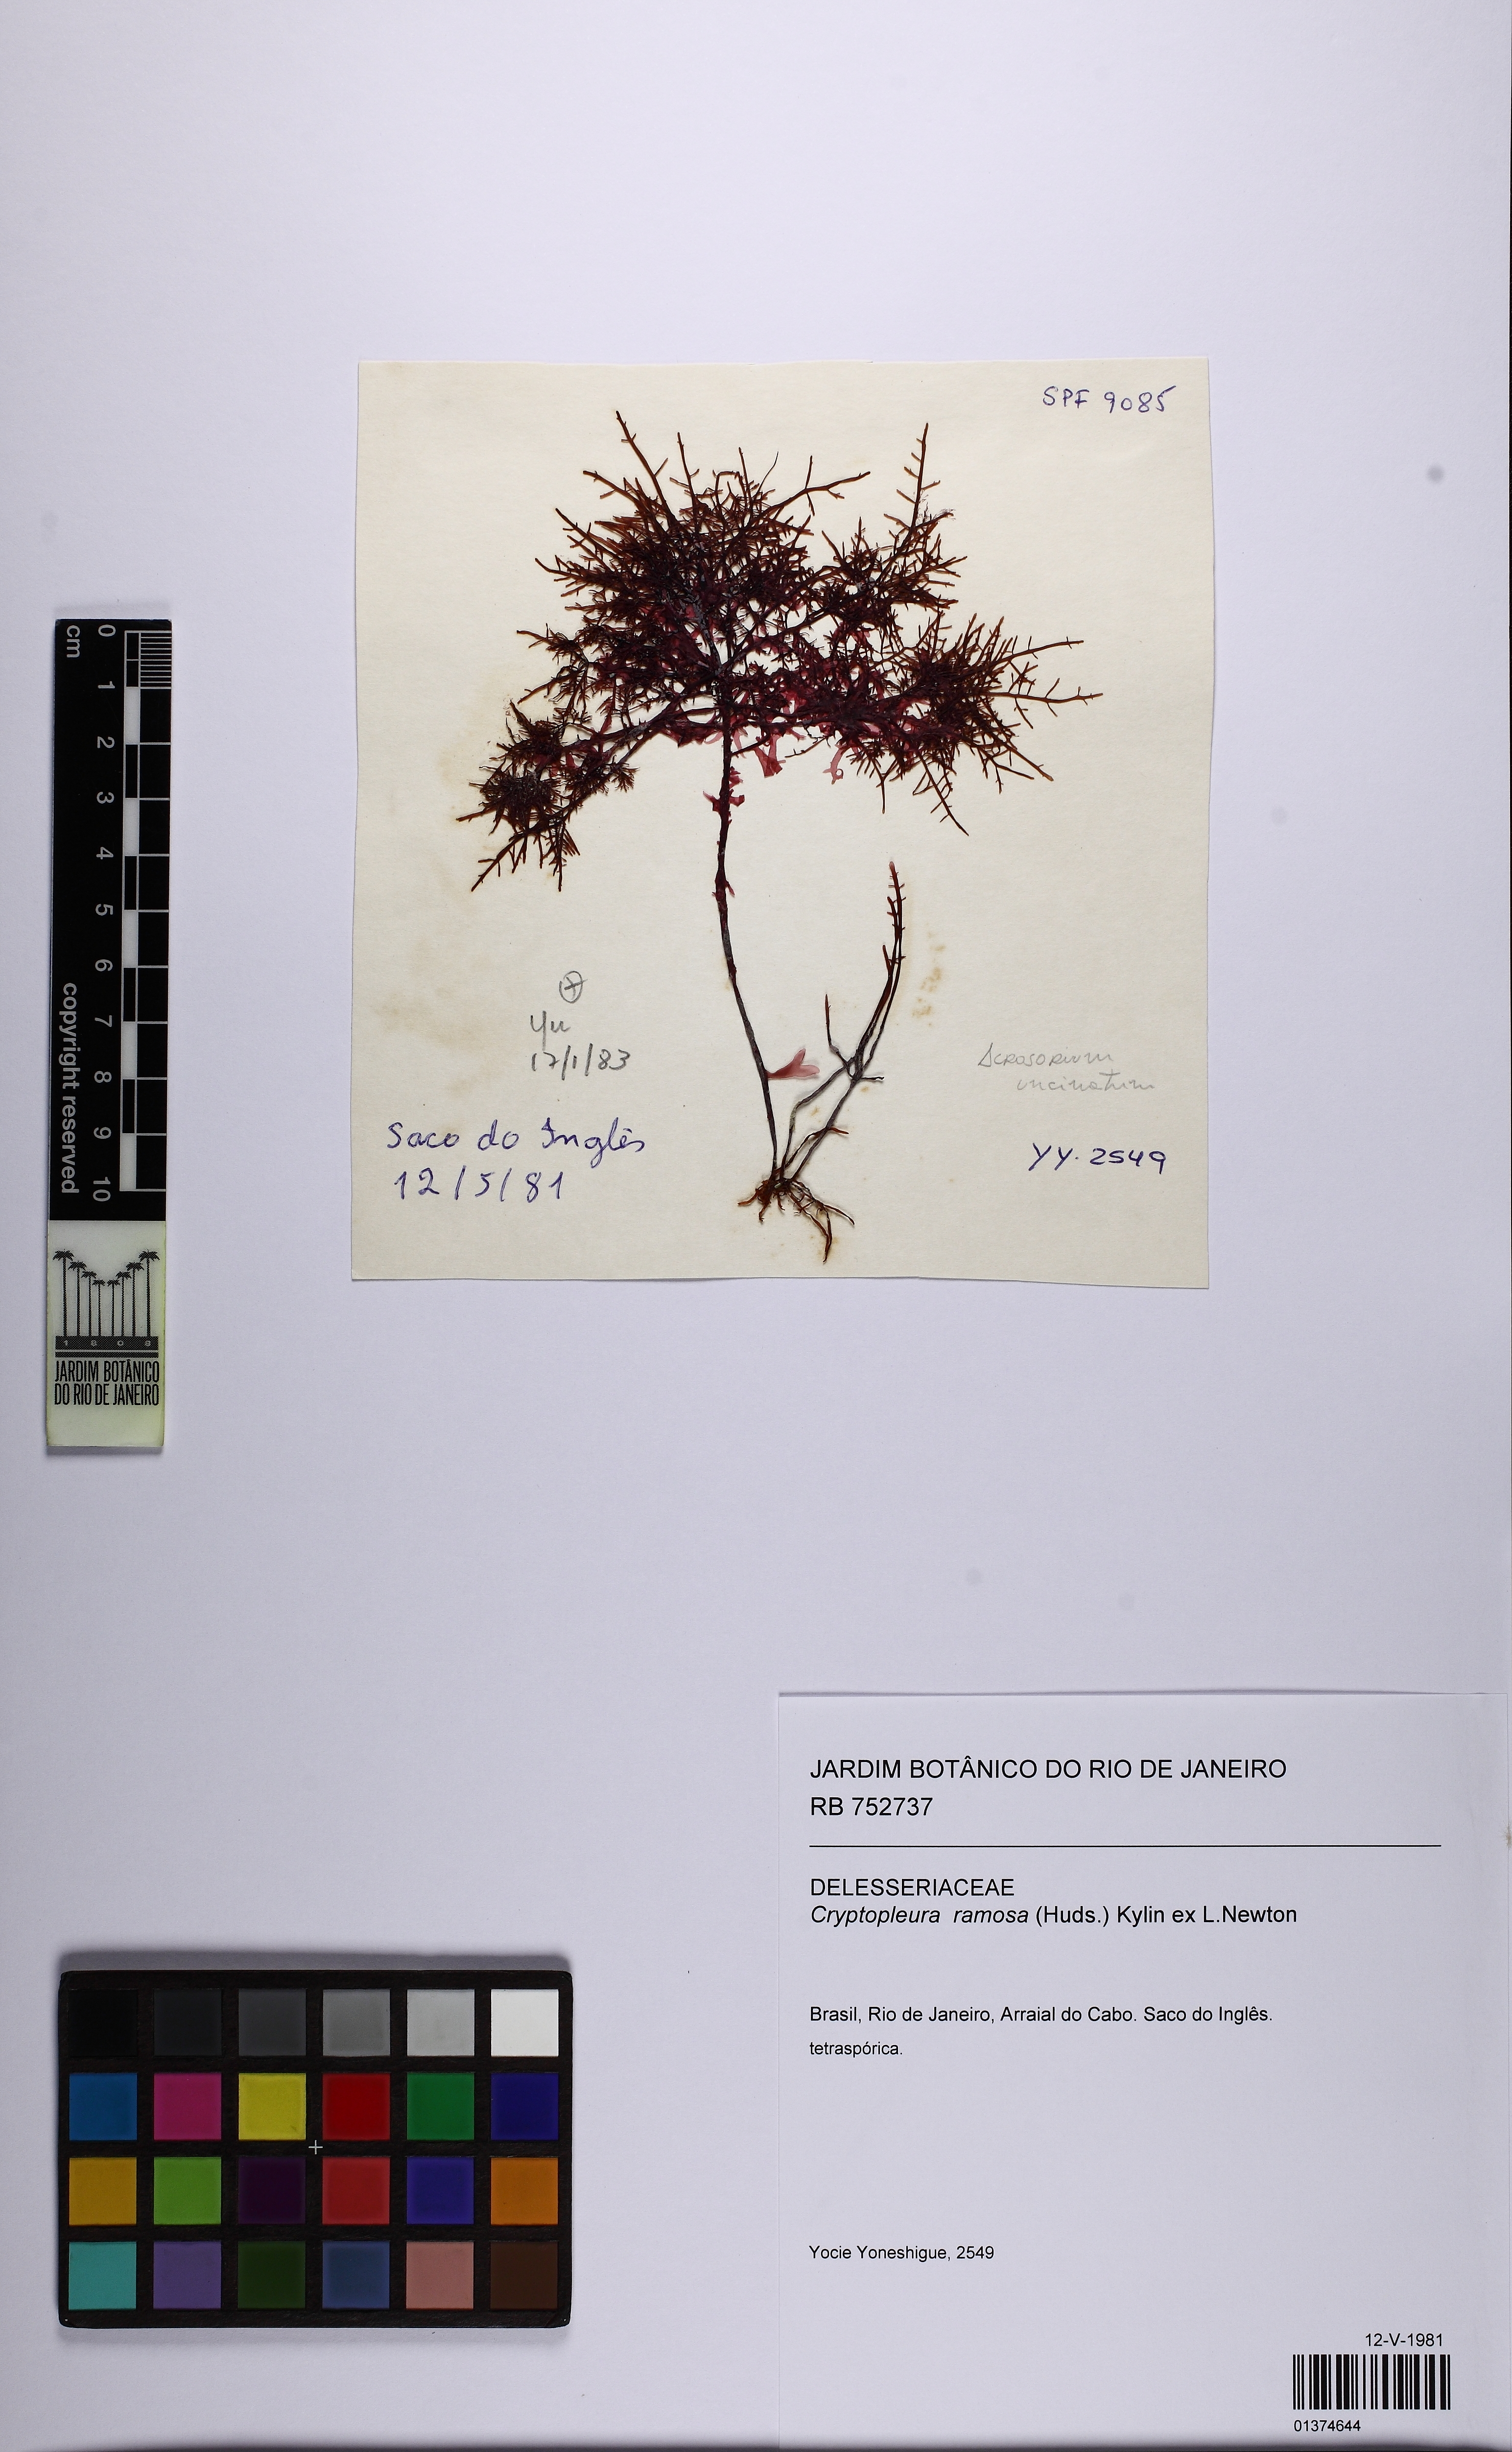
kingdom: Plantae
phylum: Rhodophyta
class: Florideophyceae
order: Ceramiales
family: Delesseriaceae
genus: Cryptopleura
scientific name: Cryptopleura ramosa
